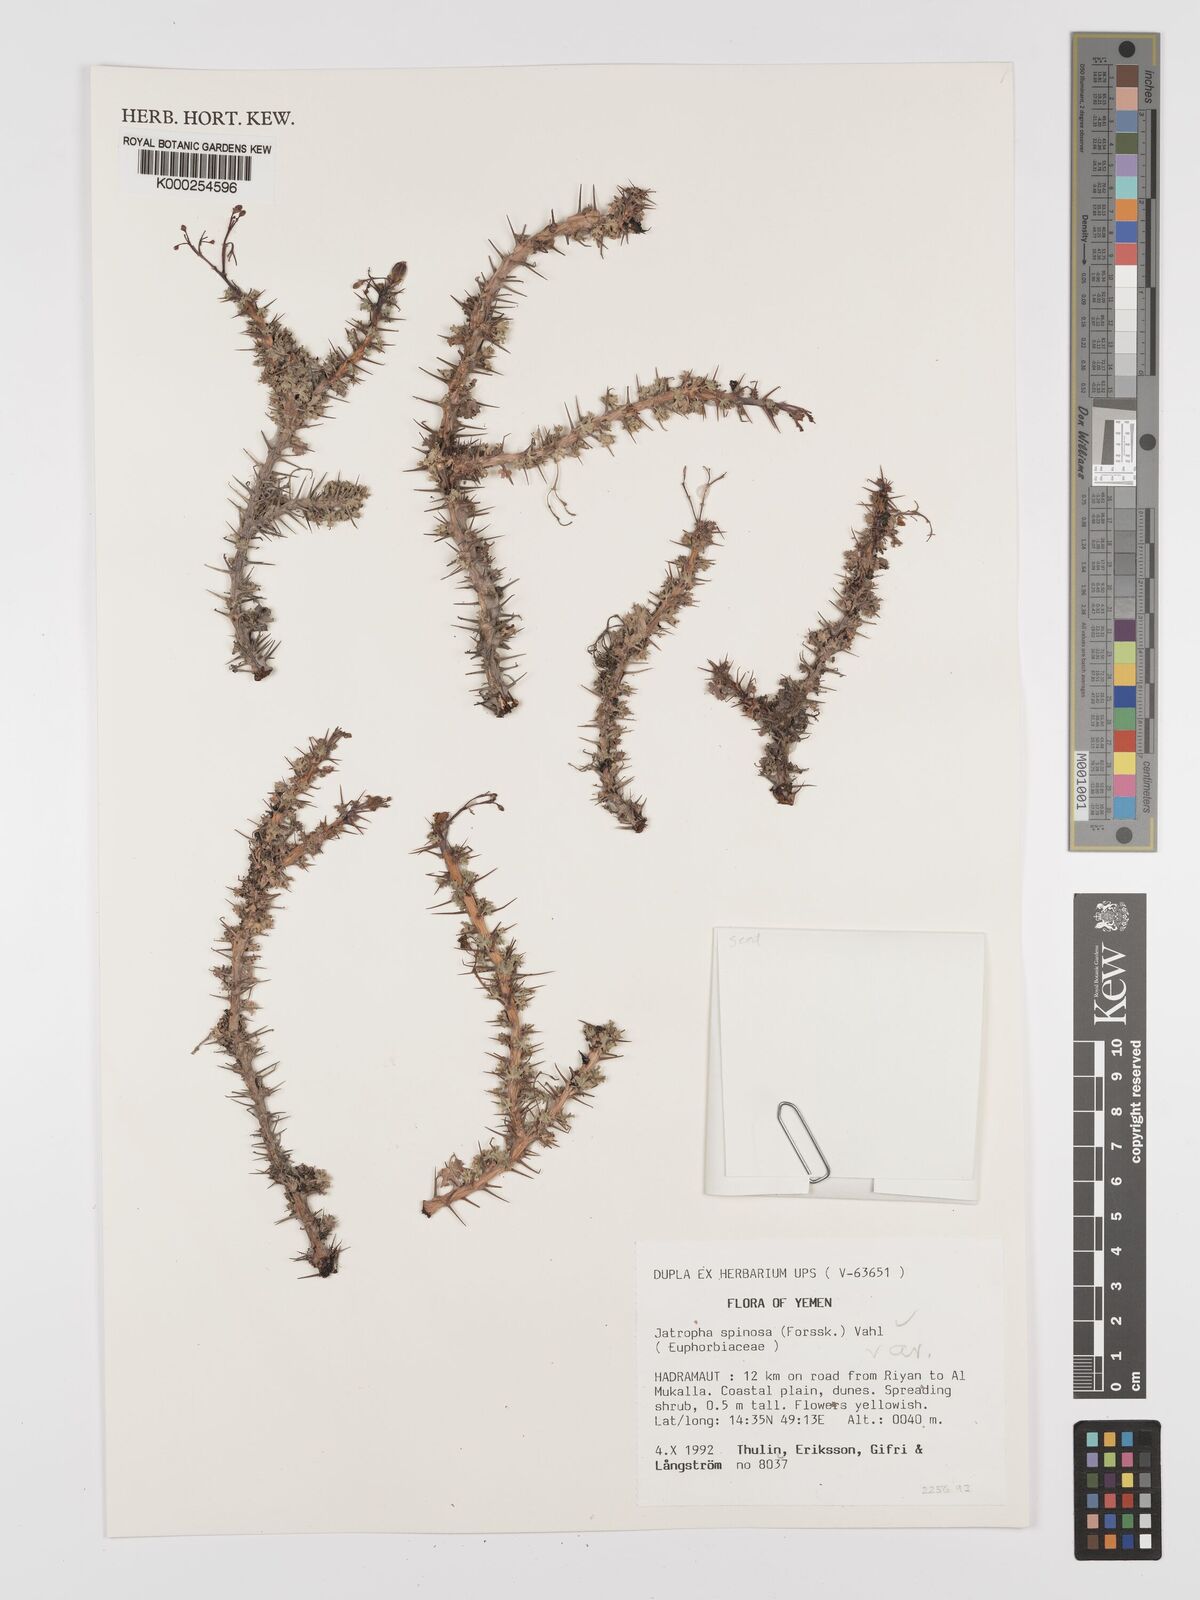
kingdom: Plantae
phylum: Tracheophyta
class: Magnoliopsida
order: Malpighiales
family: Euphorbiaceae
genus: Jatropha
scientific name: Jatropha spinosa
